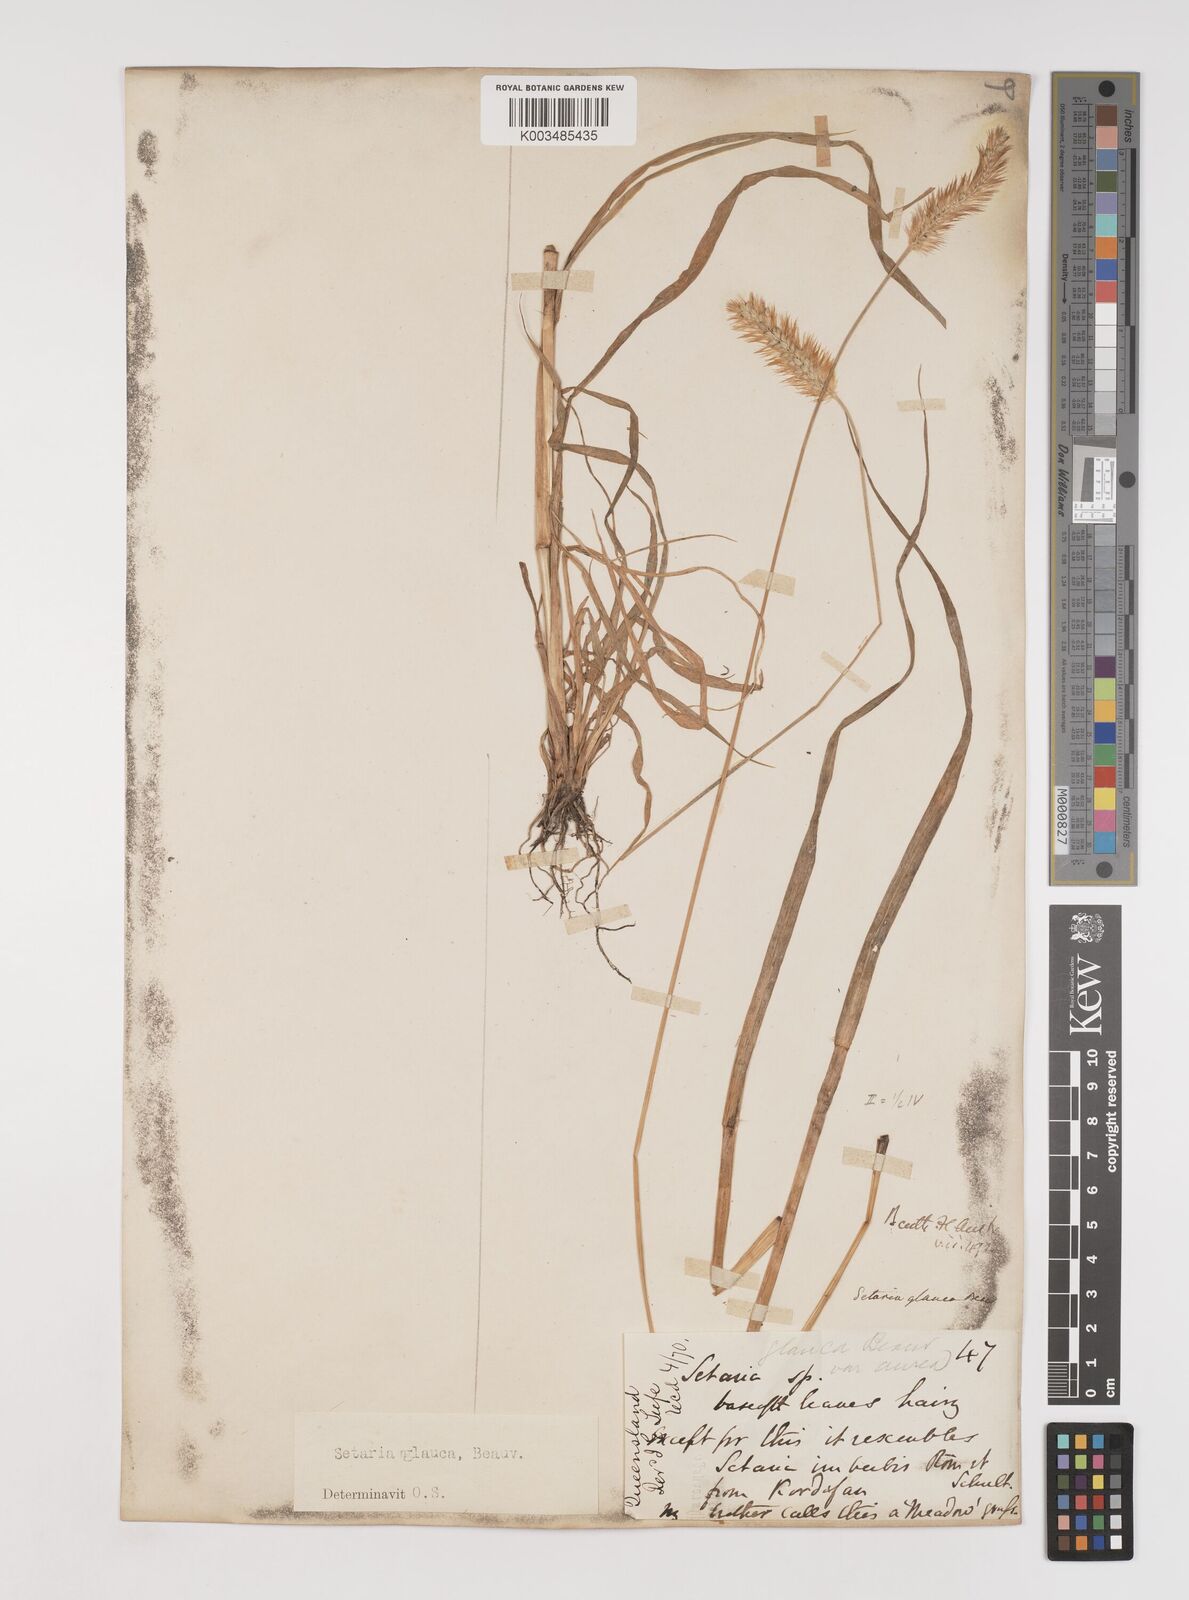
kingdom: Plantae
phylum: Tracheophyta
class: Liliopsida
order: Poales
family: Poaceae
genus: Setaria
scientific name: Setaria pumila
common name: Yellow bristle-grass
